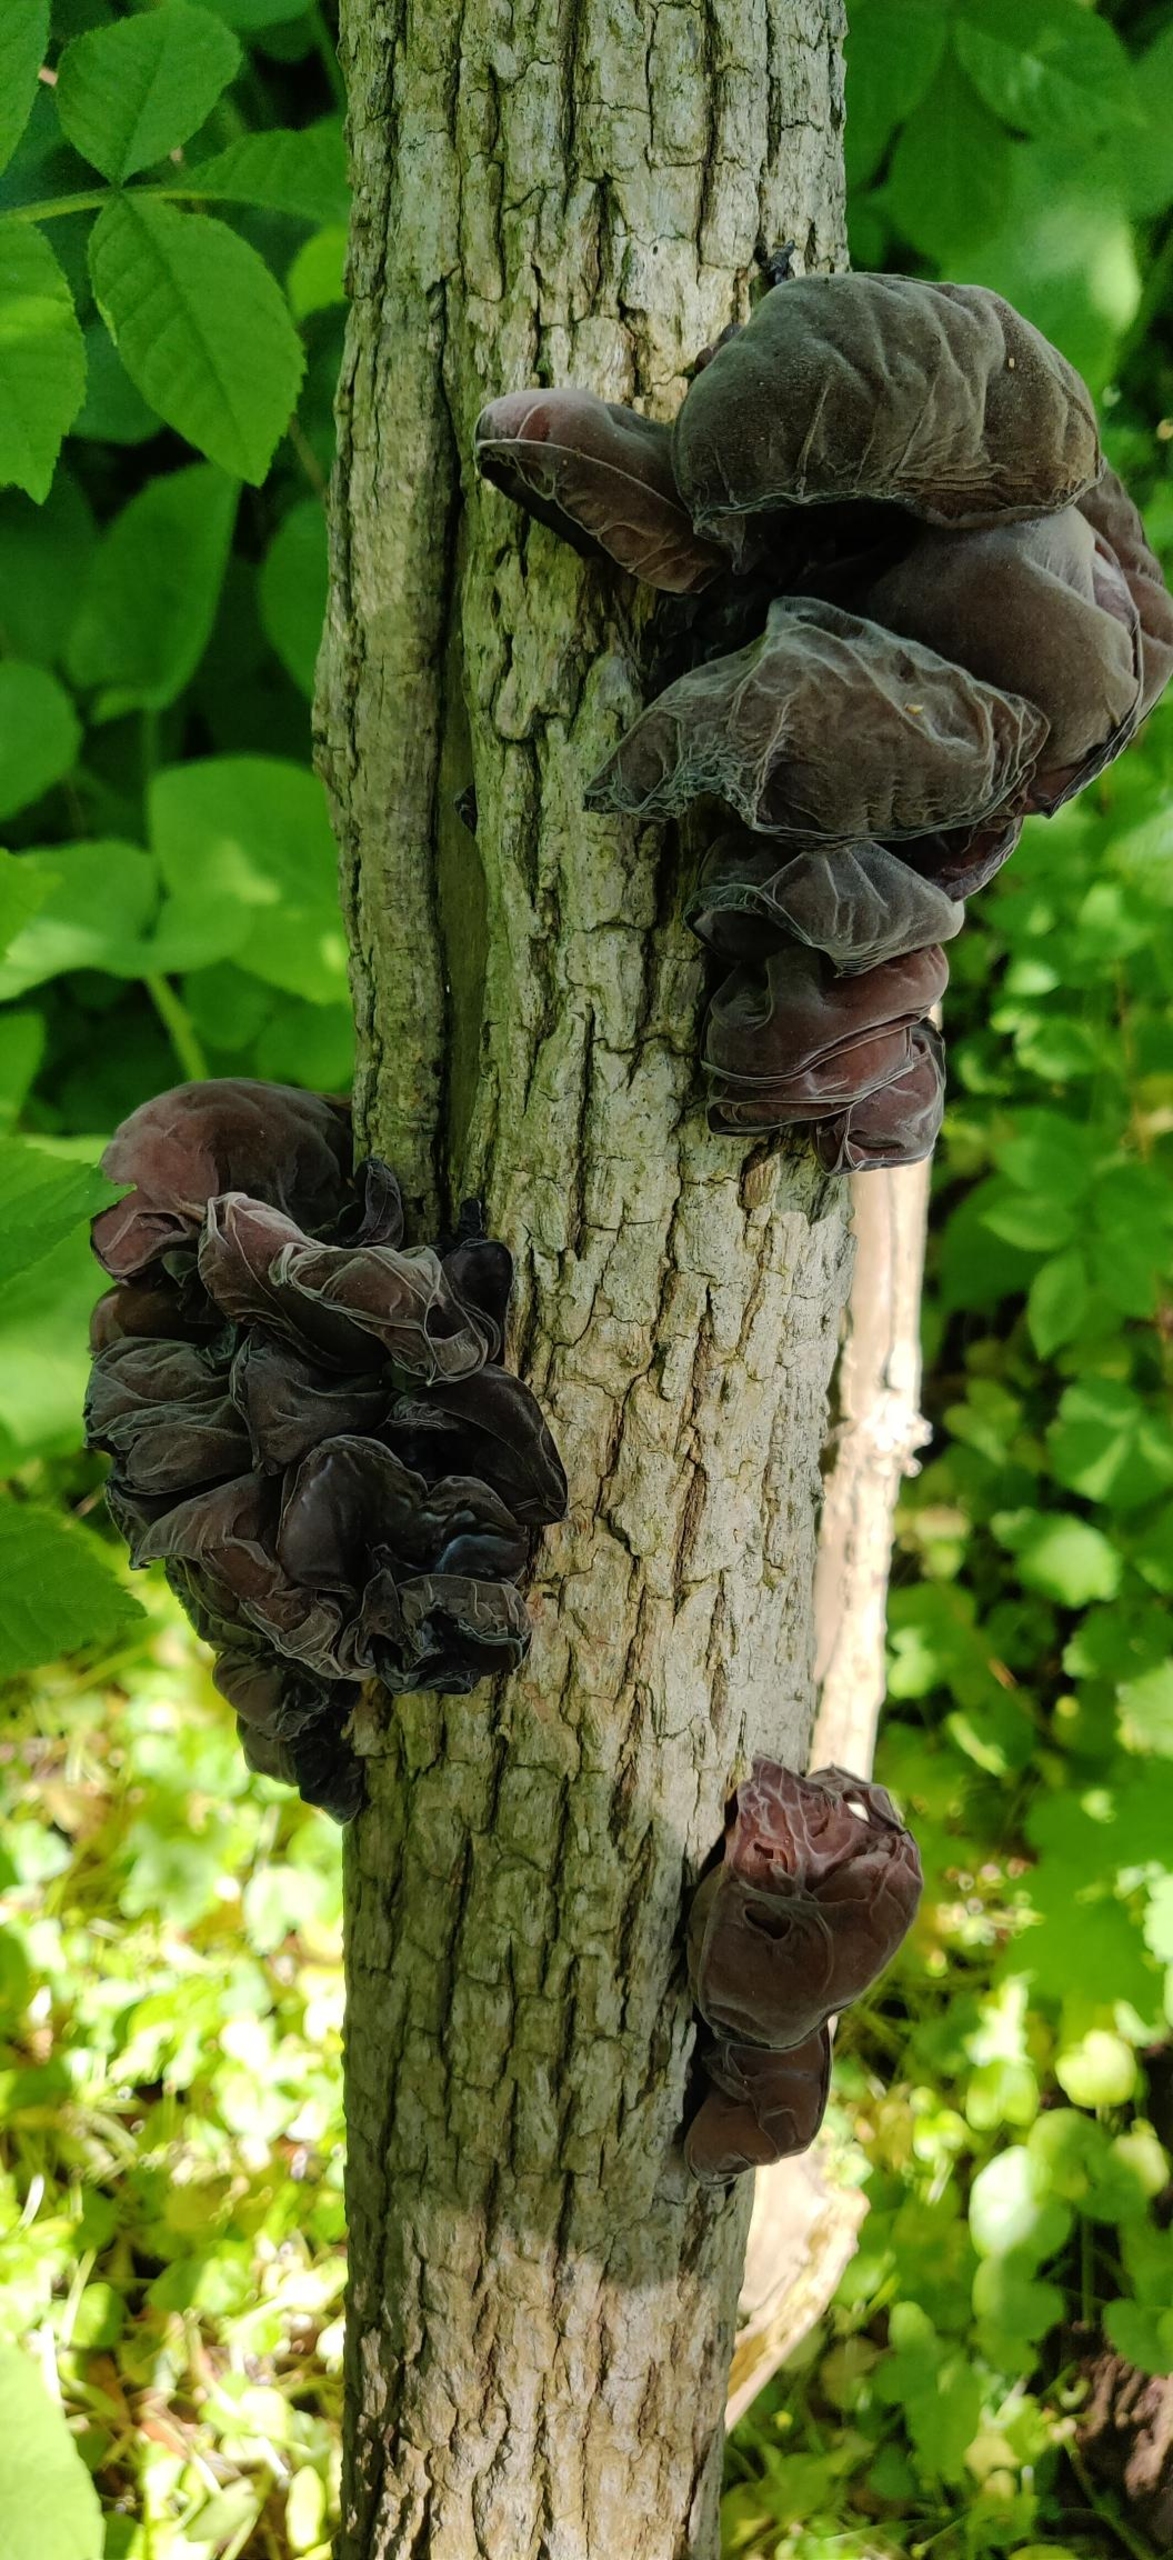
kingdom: Fungi
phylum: Basidiomycota
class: Agaricomycetes
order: Auriculariales
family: Auriculariaceae
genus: Auricularia
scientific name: Auricularia auricula-judae
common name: Almindelig judasøre
